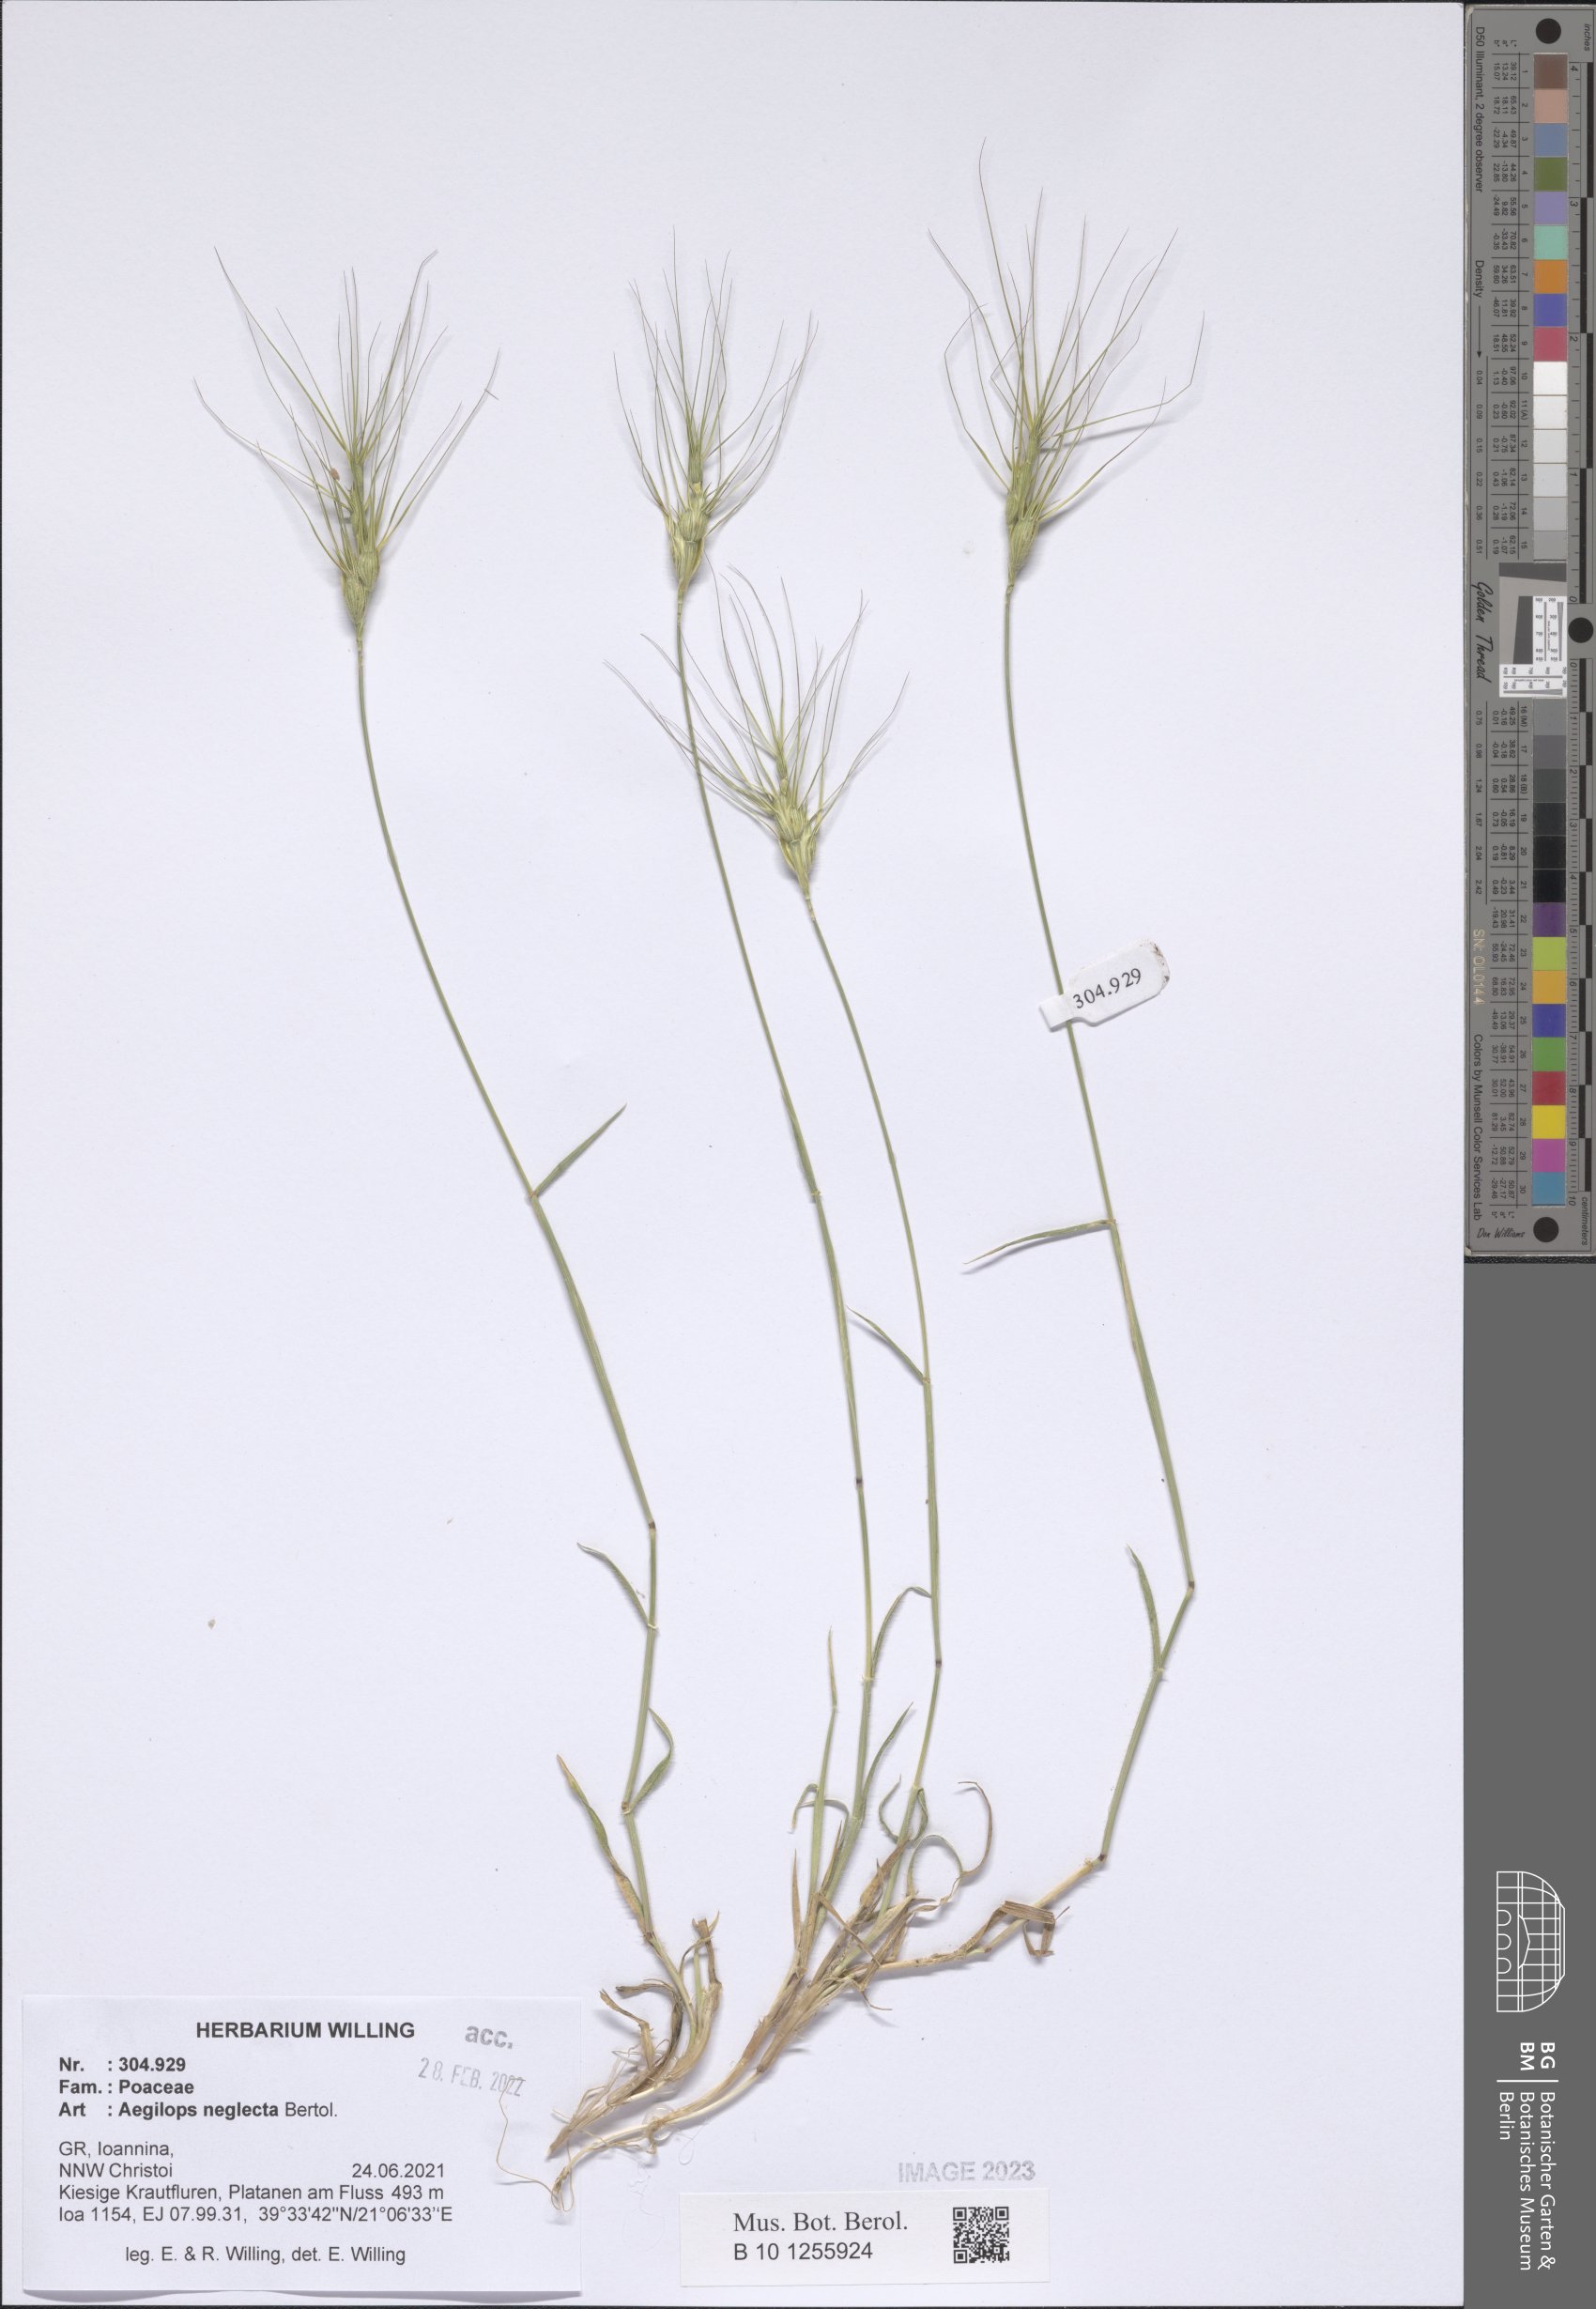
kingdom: Plantae
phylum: Tracheophyta
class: Liliopsida
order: Poales
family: Poaceae
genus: Aegilops
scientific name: Aegilops neglecta
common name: Three-awn goat grass
